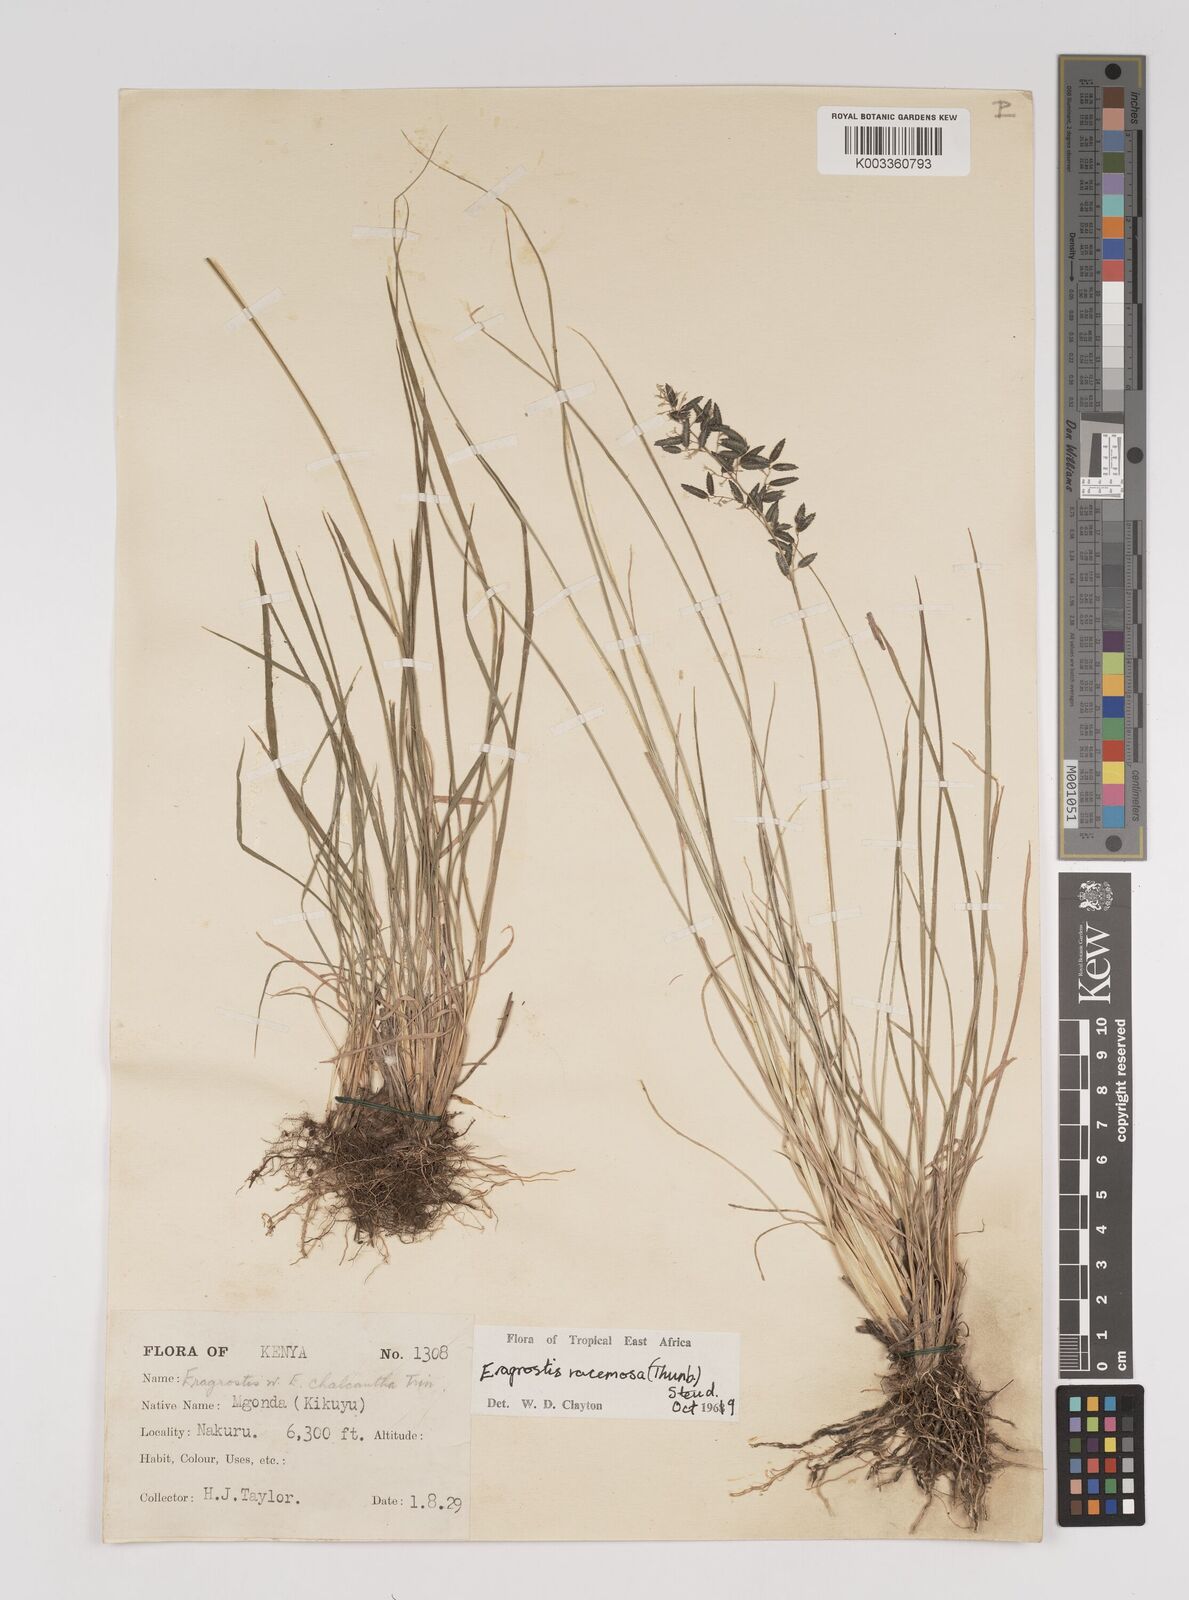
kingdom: Plantae
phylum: Tracheophyta
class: Liliopsida
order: Poales
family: Poaceae
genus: Eragrostis
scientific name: Eragrostis racemosa
